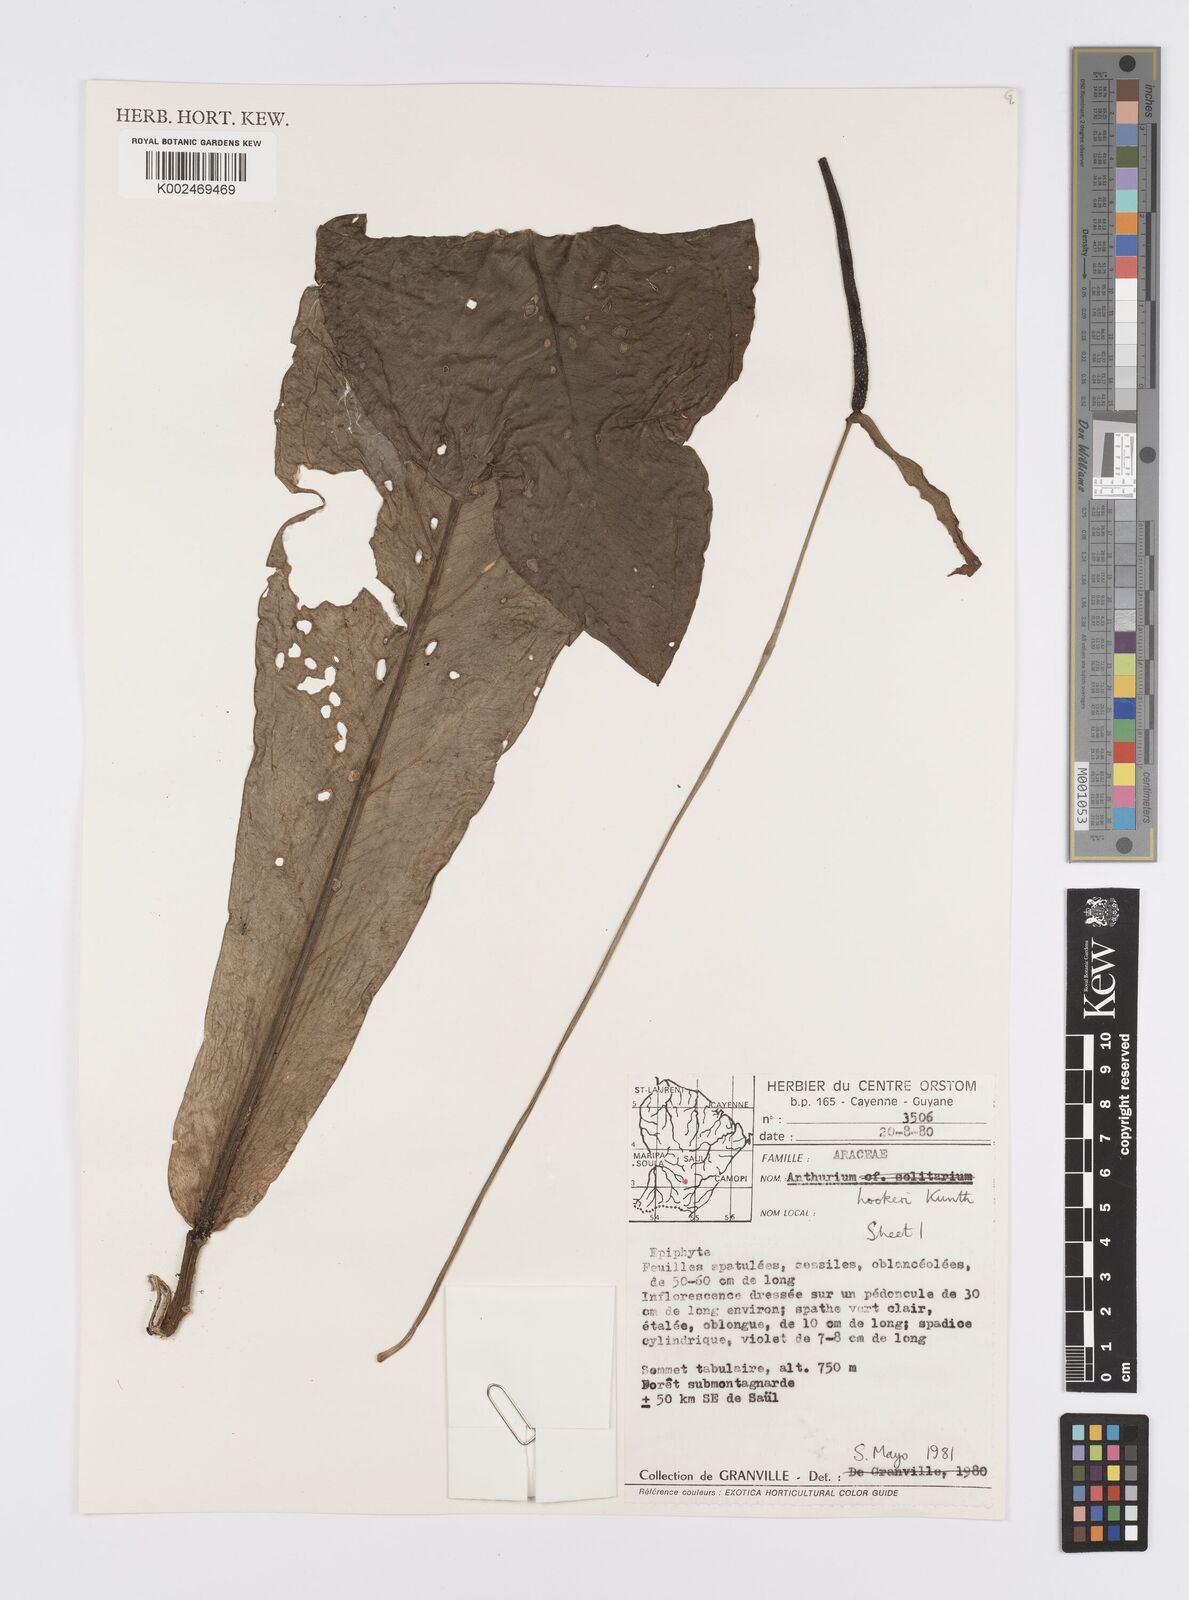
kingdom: Plantae
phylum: Tracheophyta
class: Liliopsida
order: Alismatales
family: Araceae
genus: Anthurium
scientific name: Anthurium hookeri
